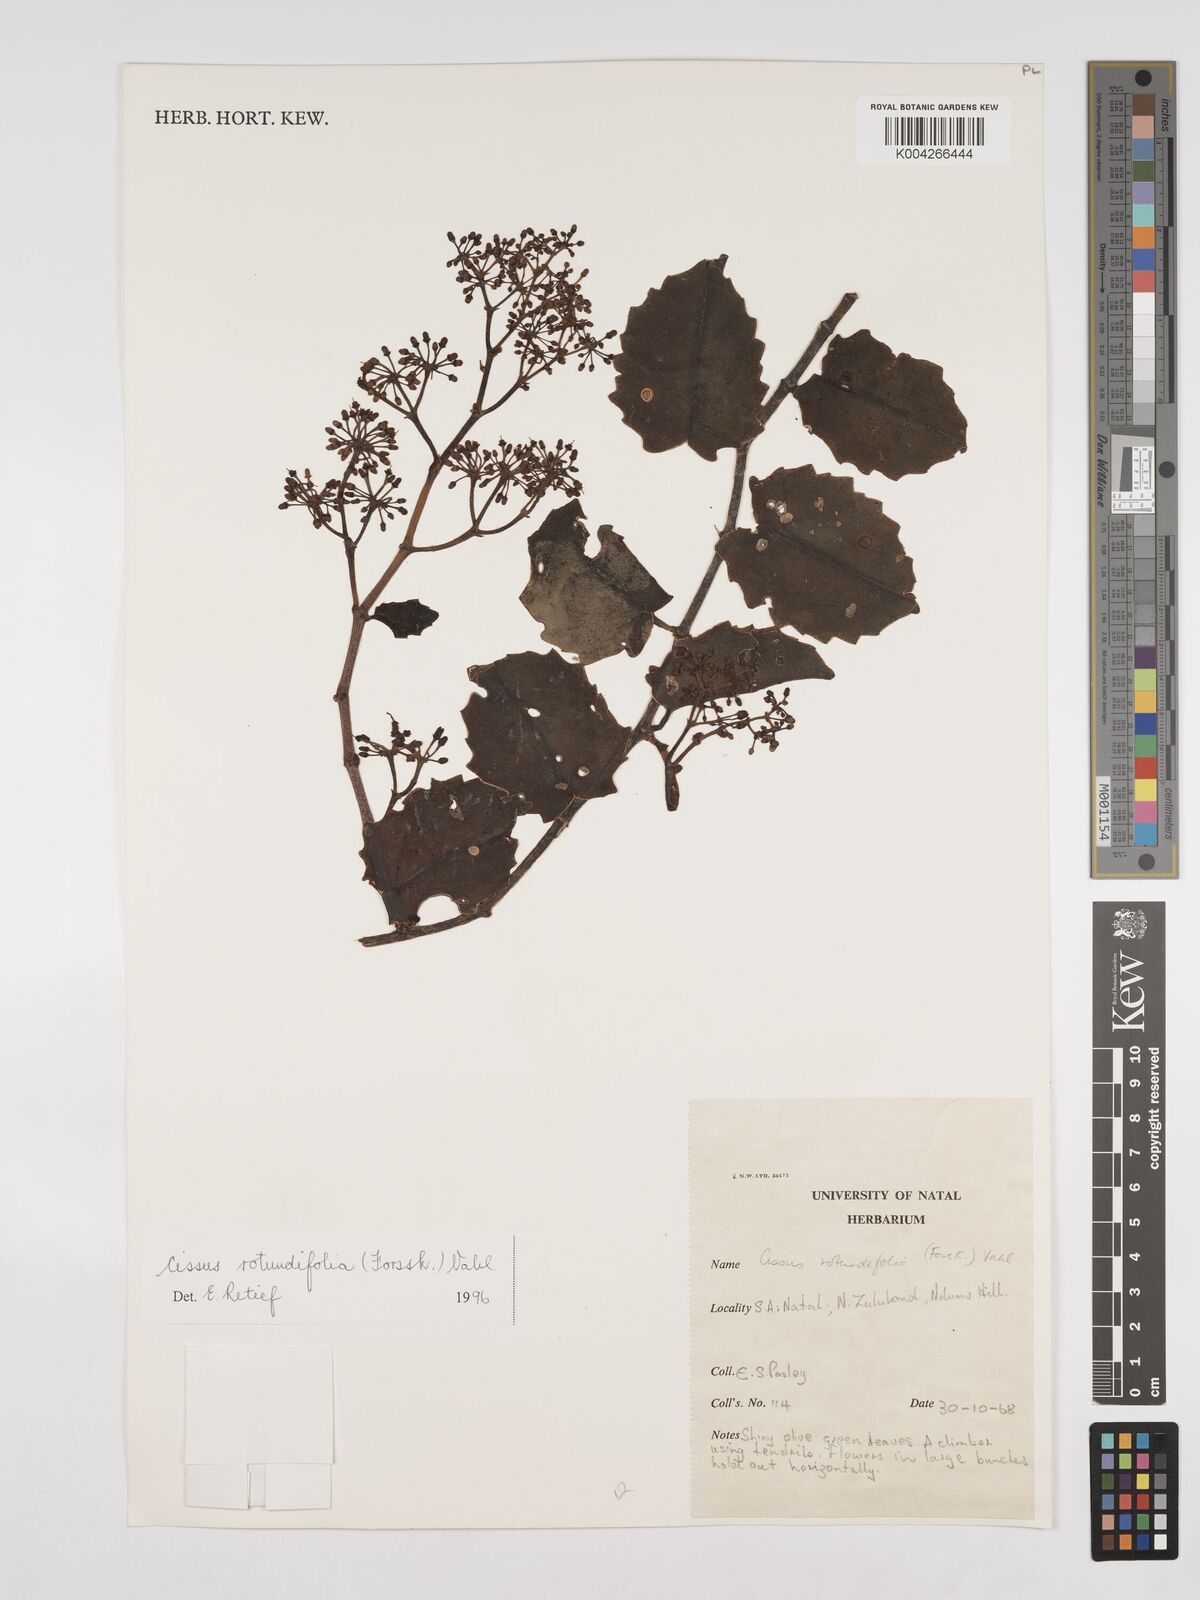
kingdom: Plantae
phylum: Tracheophyta
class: Magnoliopsida
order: Vitales
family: Vitaceae
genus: Cissus
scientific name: Cissus
